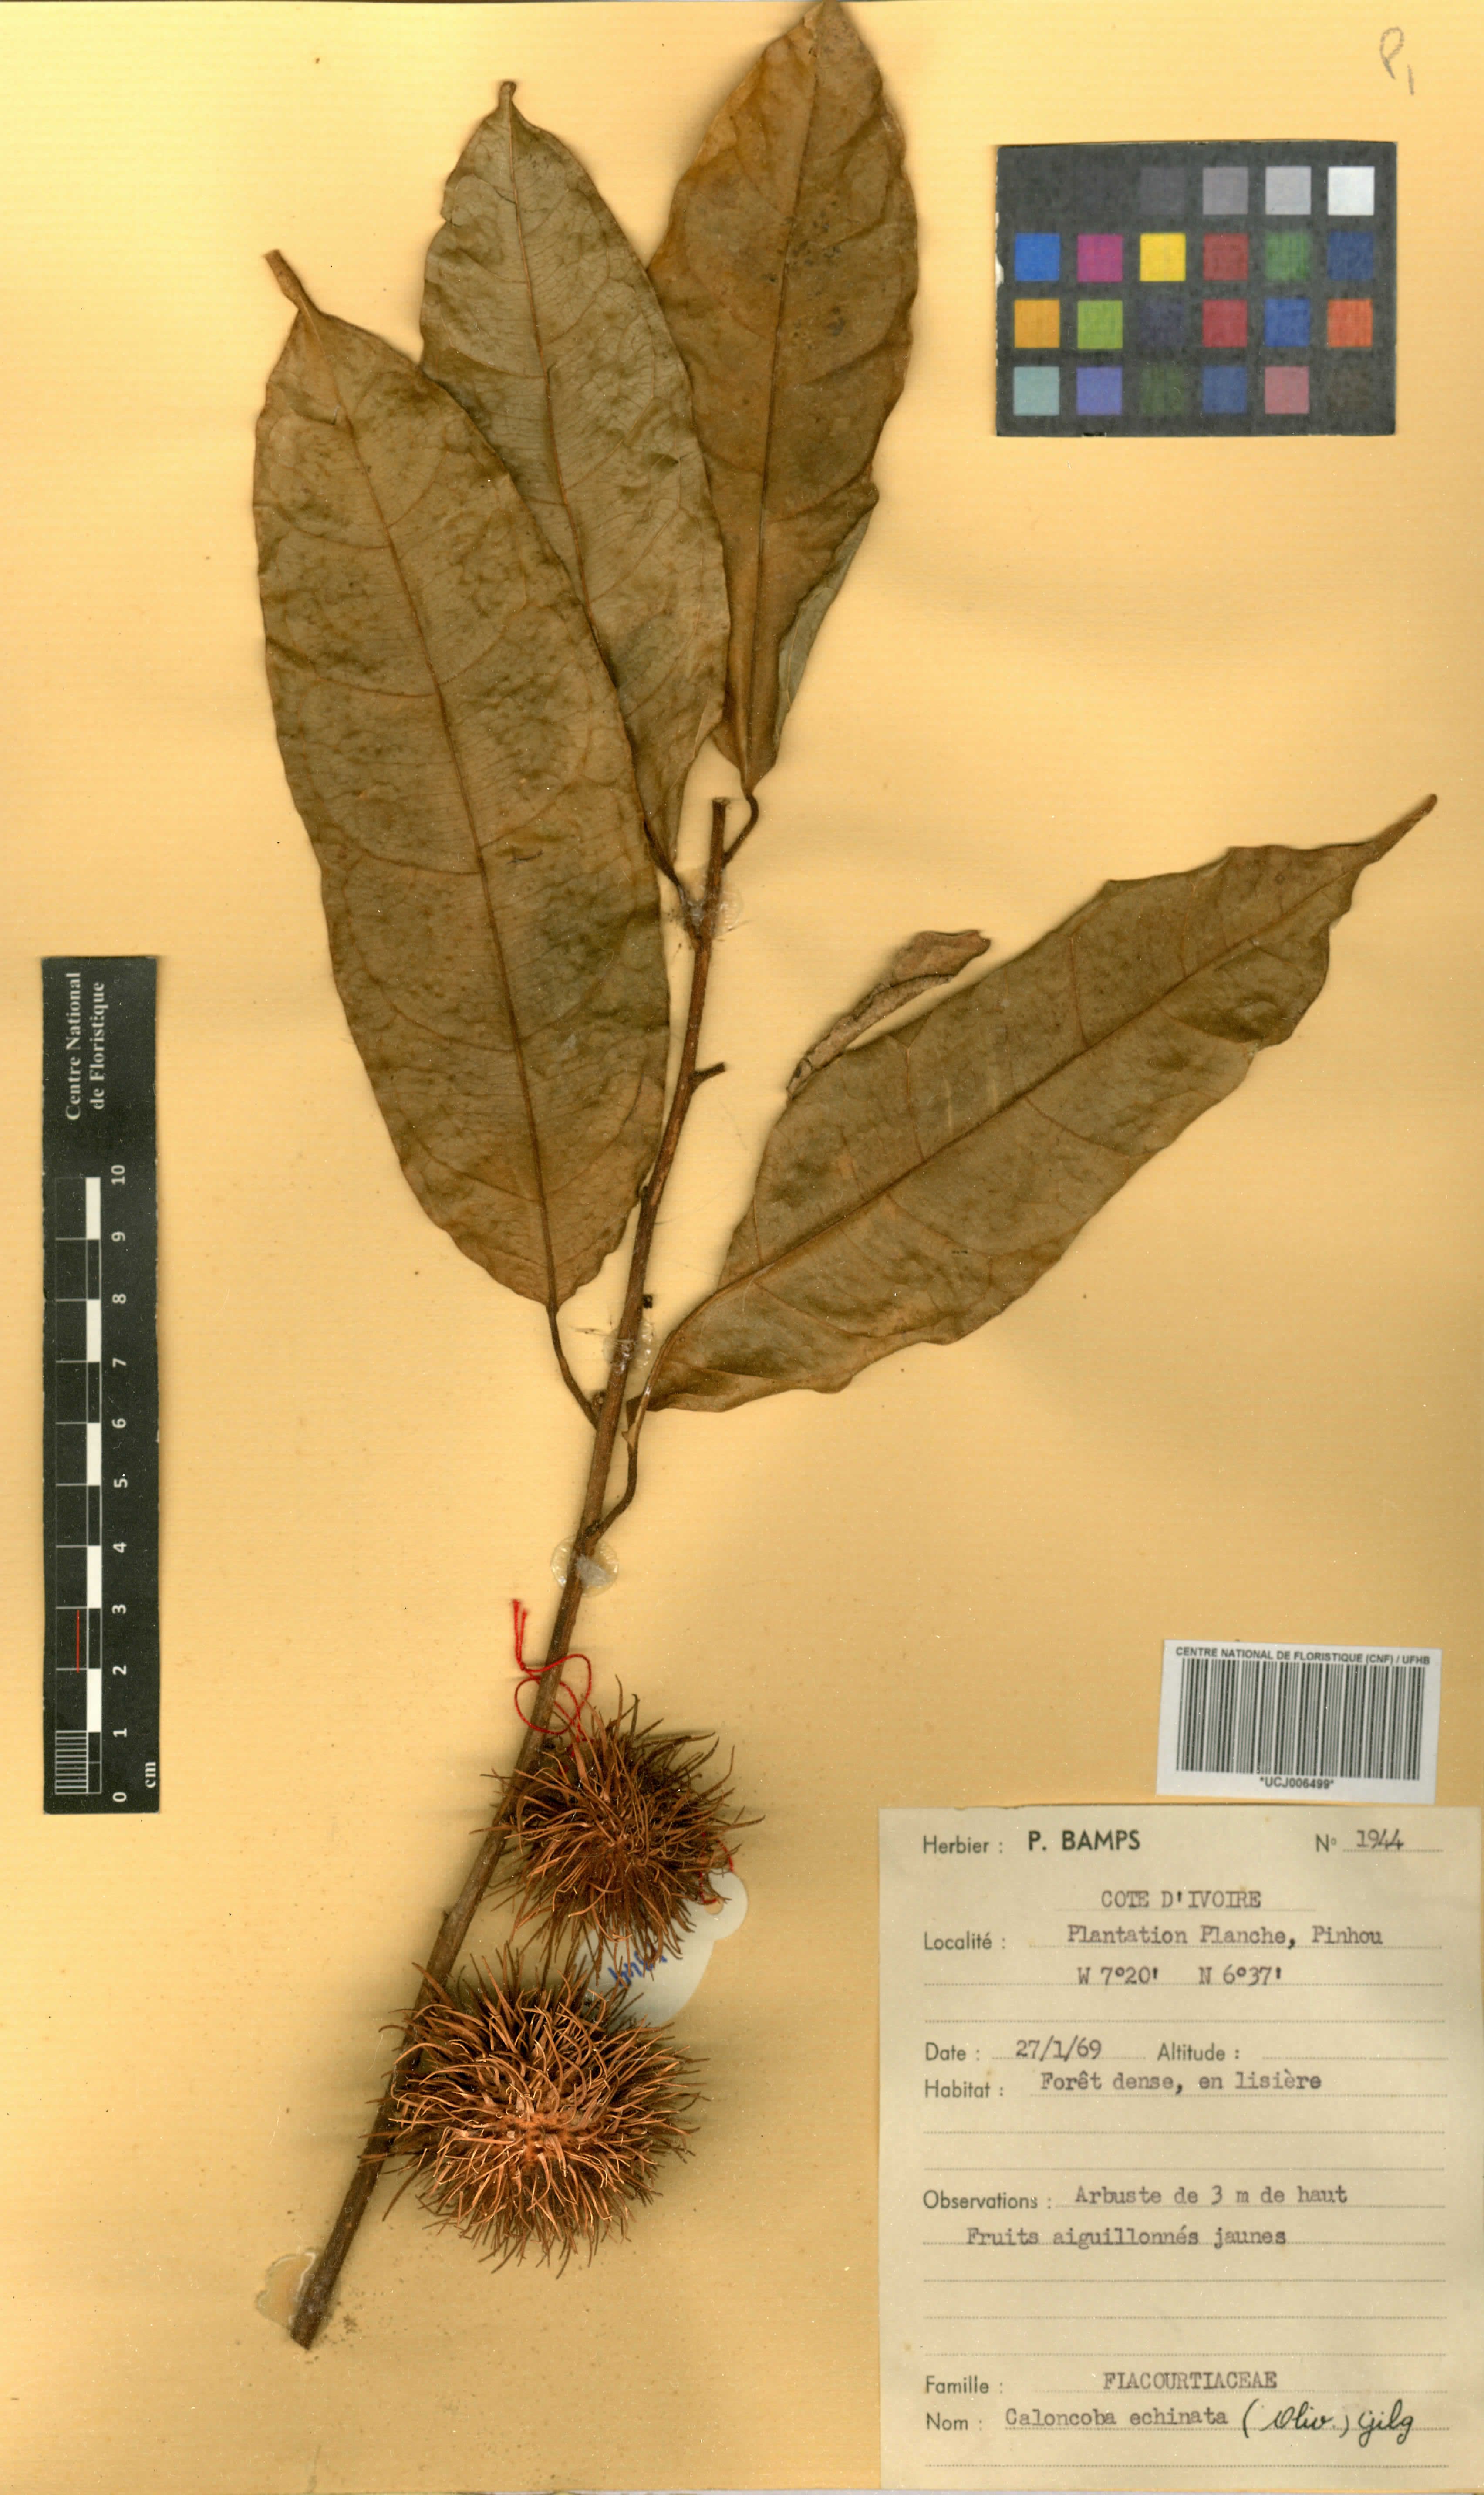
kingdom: Plantae
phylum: Tracheophyta
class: Magnoliopsida
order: Malpighiales
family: Achariaceae
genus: Caloncoba
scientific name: Caloncoba echinata
